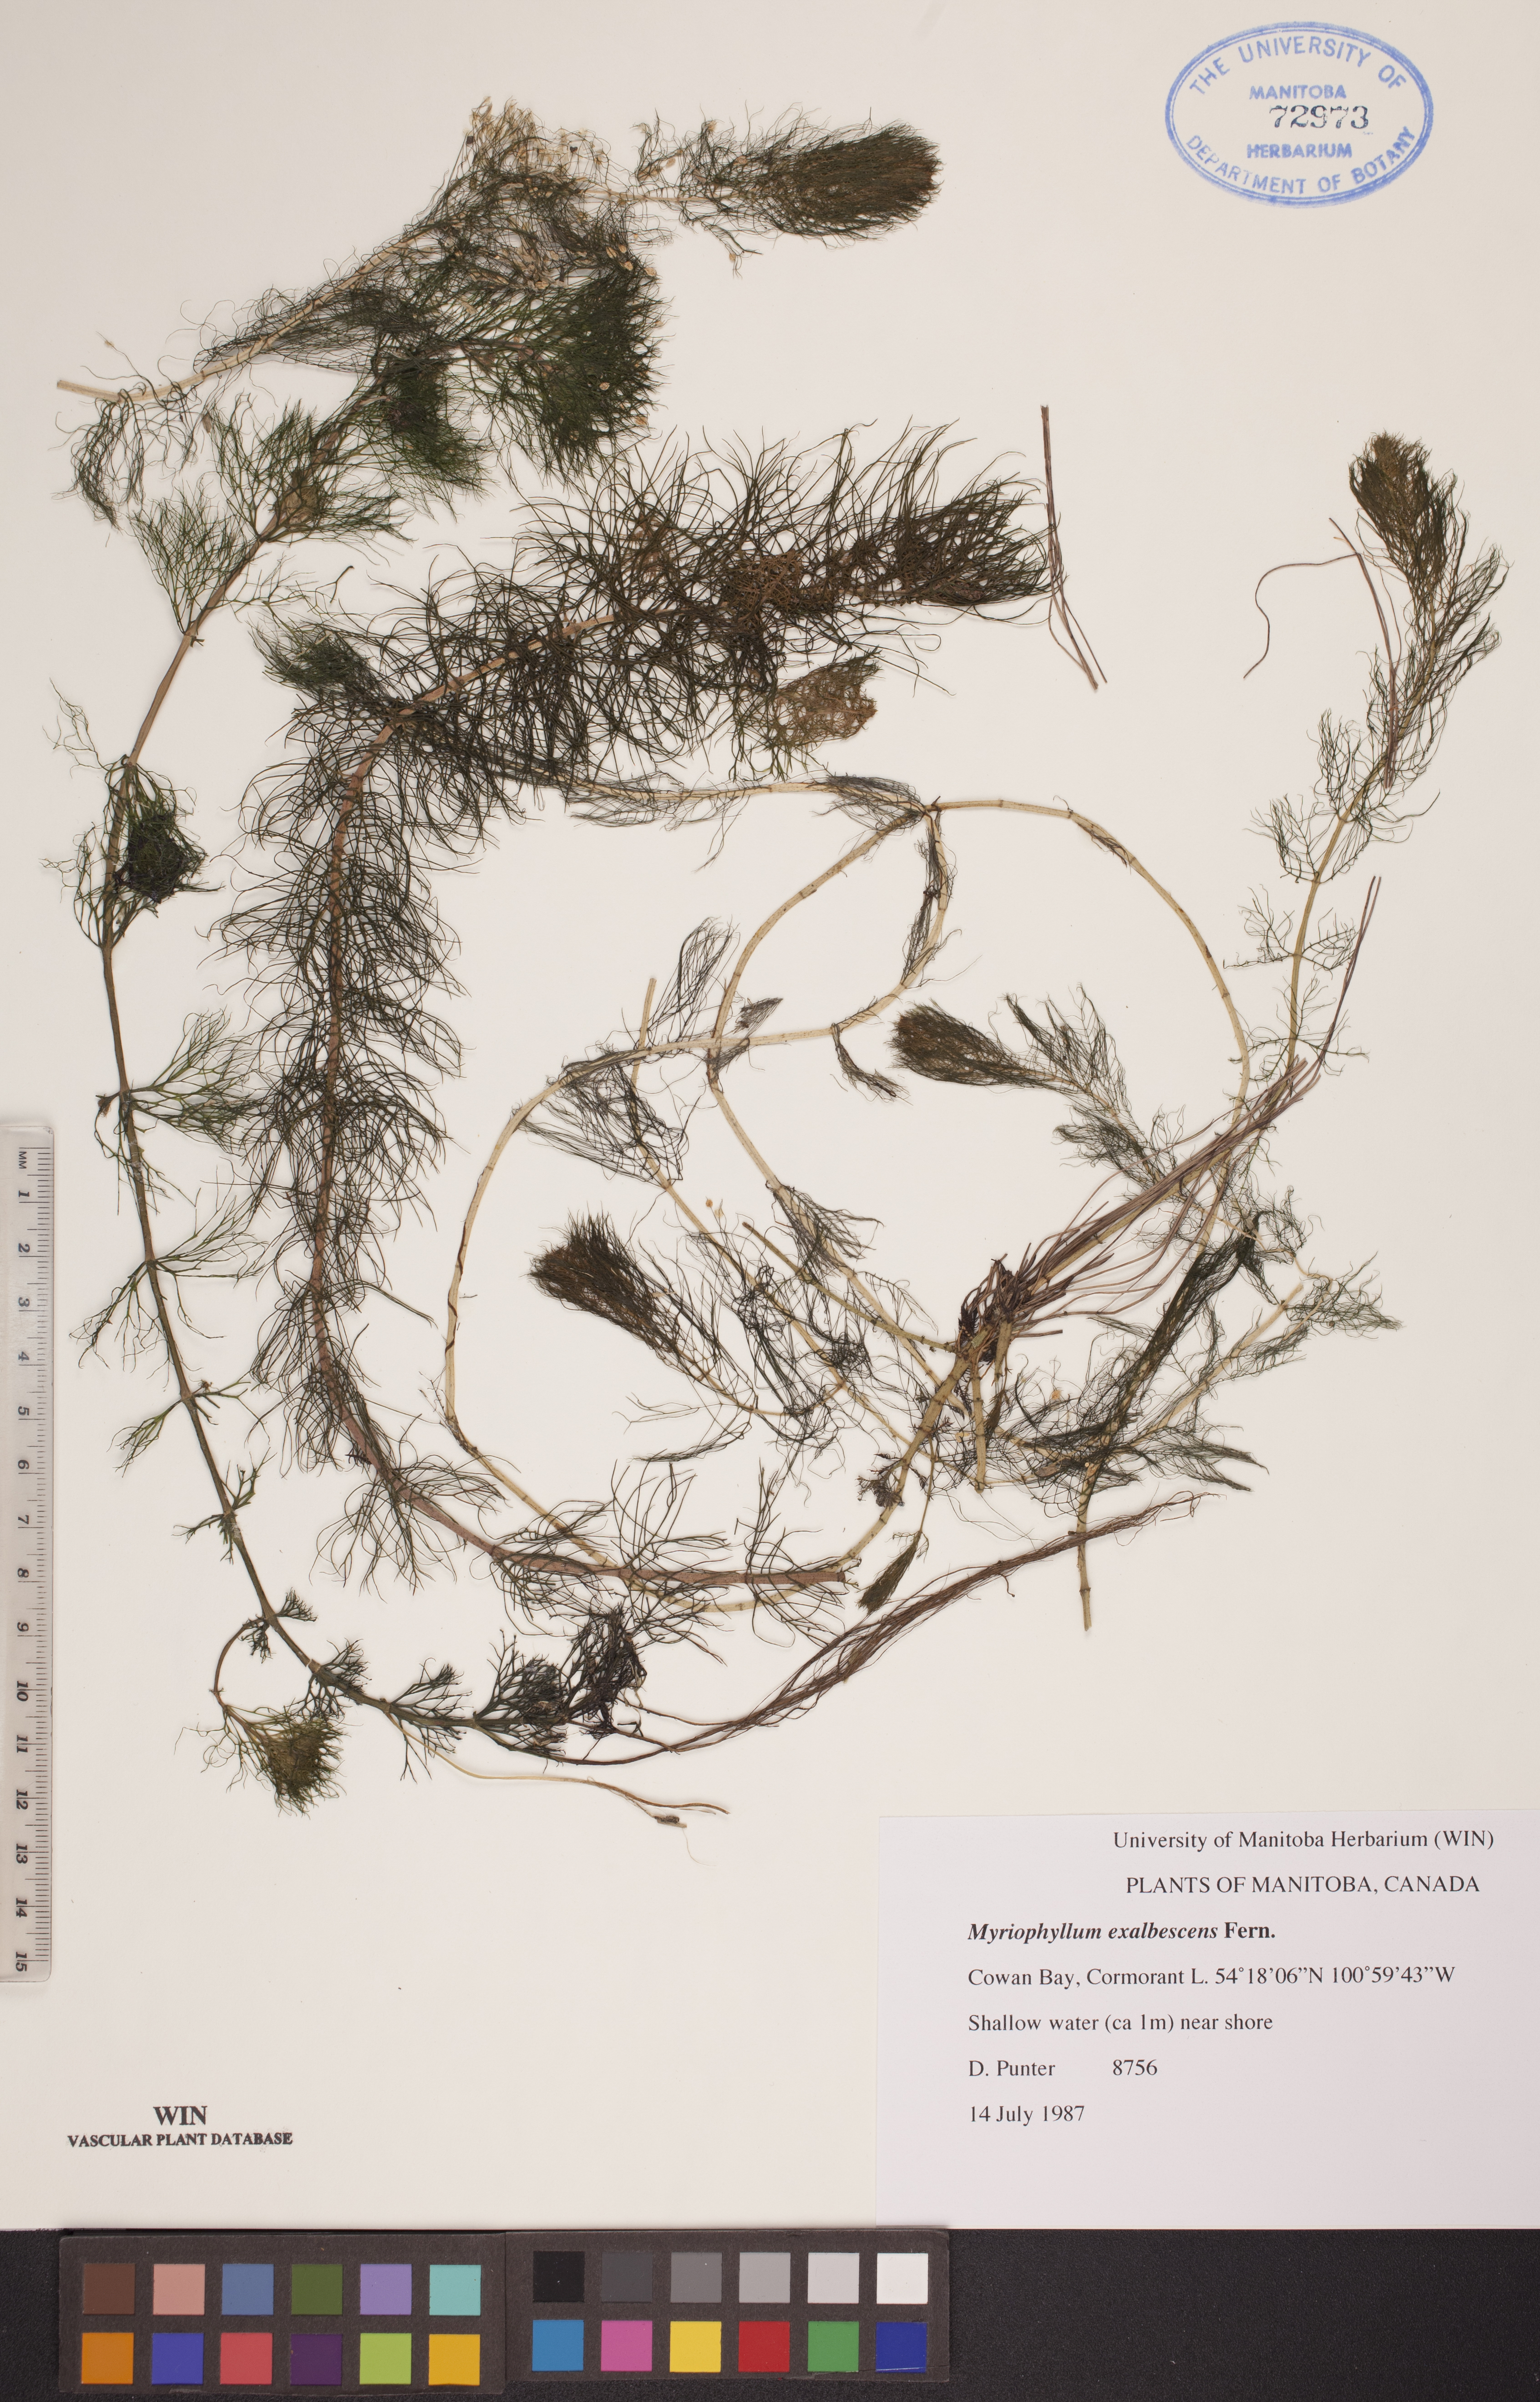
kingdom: Plantae
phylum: Tracheophyta
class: Magnoliopsida
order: Saxifragales
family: Haloragaceae
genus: Myriophyllum
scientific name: Myriophyllum sibiricum
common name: Siberian water-milfoil
